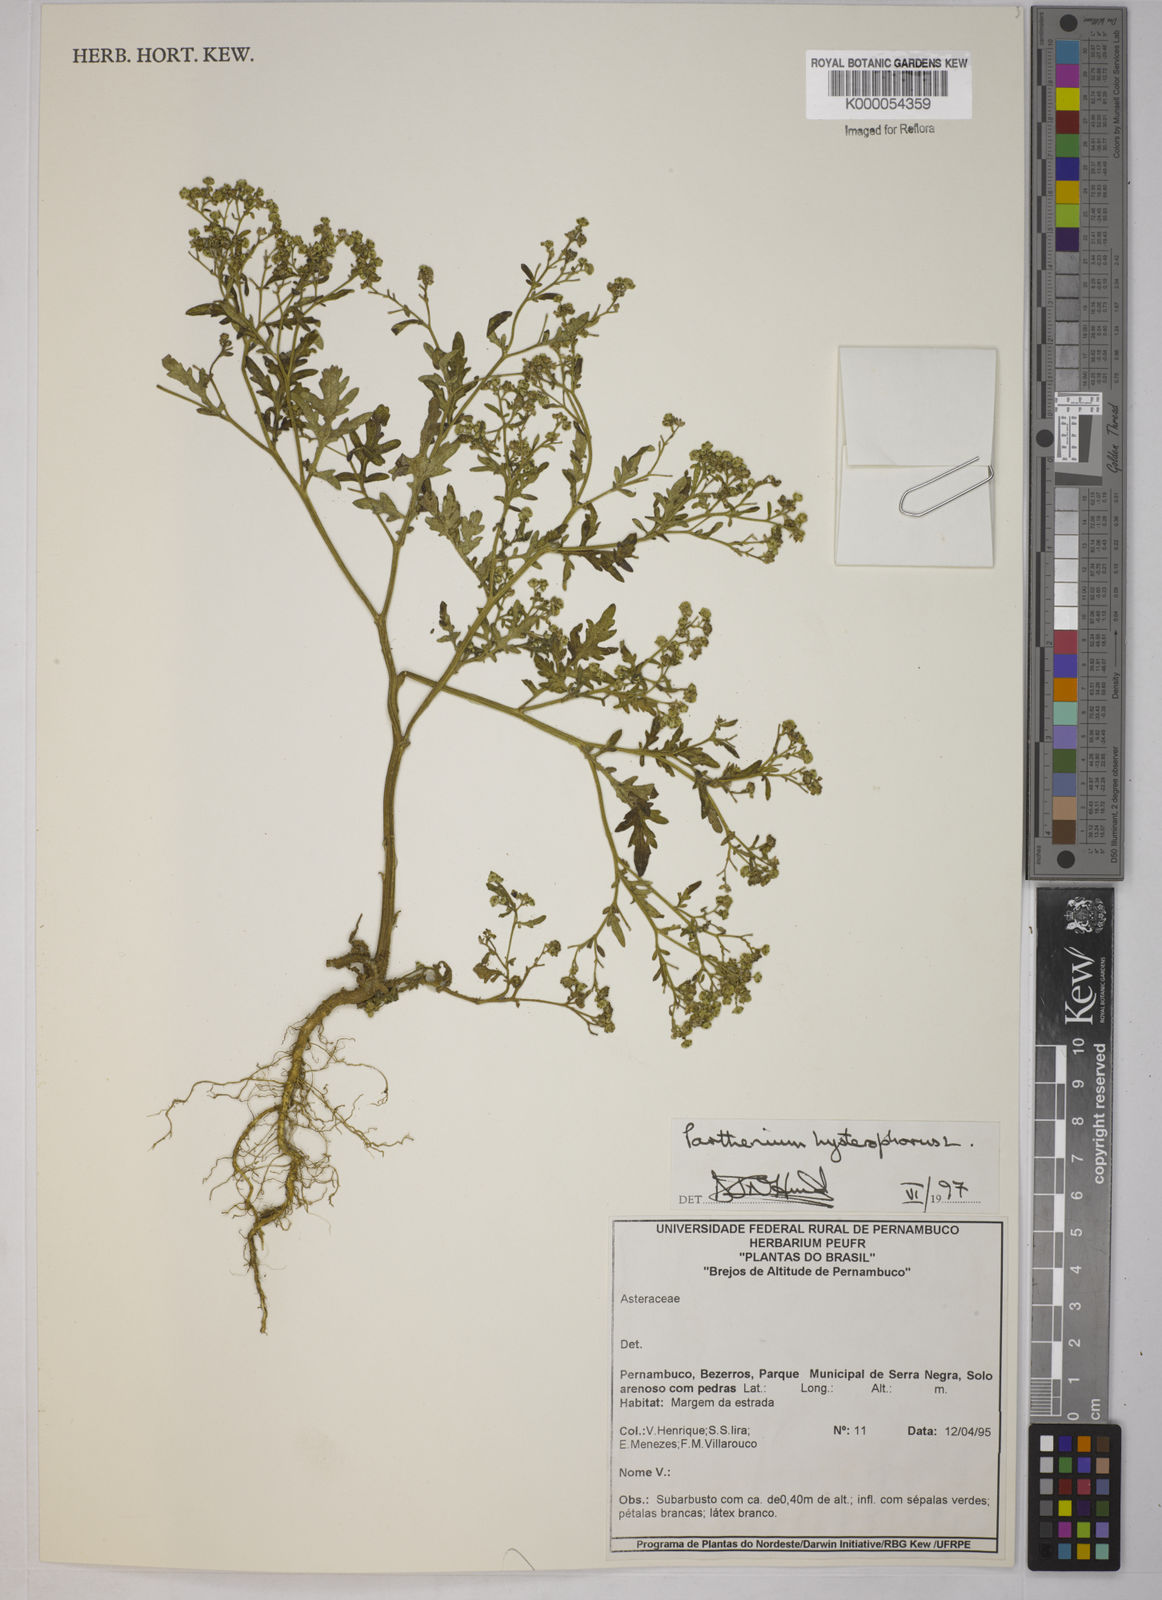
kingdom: Plantae
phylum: Tracheophyta
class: Magnoliopsida
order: Asterales
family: Asteraceae
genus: Parthenium
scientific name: Parthenium hysterophorus
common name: Santa maria feverfew
